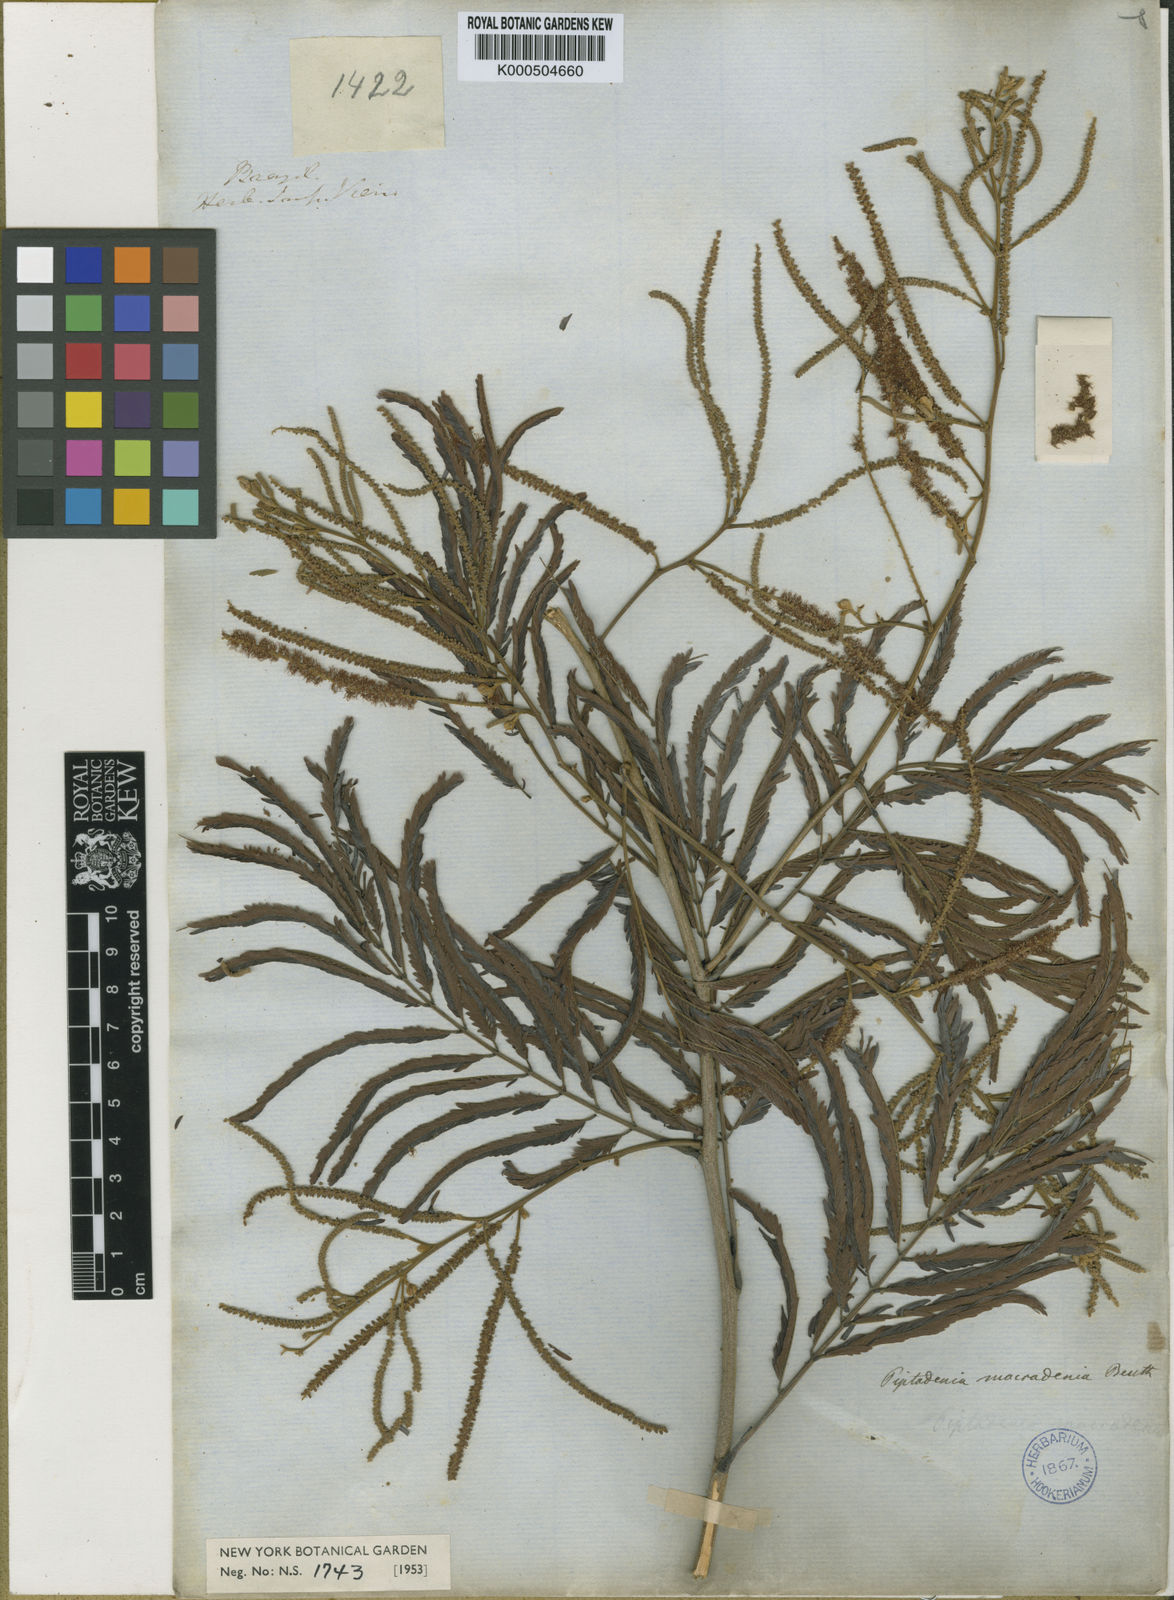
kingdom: Plantae
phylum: Tracheophyta
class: Magnoliopsida
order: Fabales
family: Fabaceae
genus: Piptadenia
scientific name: Piptadenia macradenia
